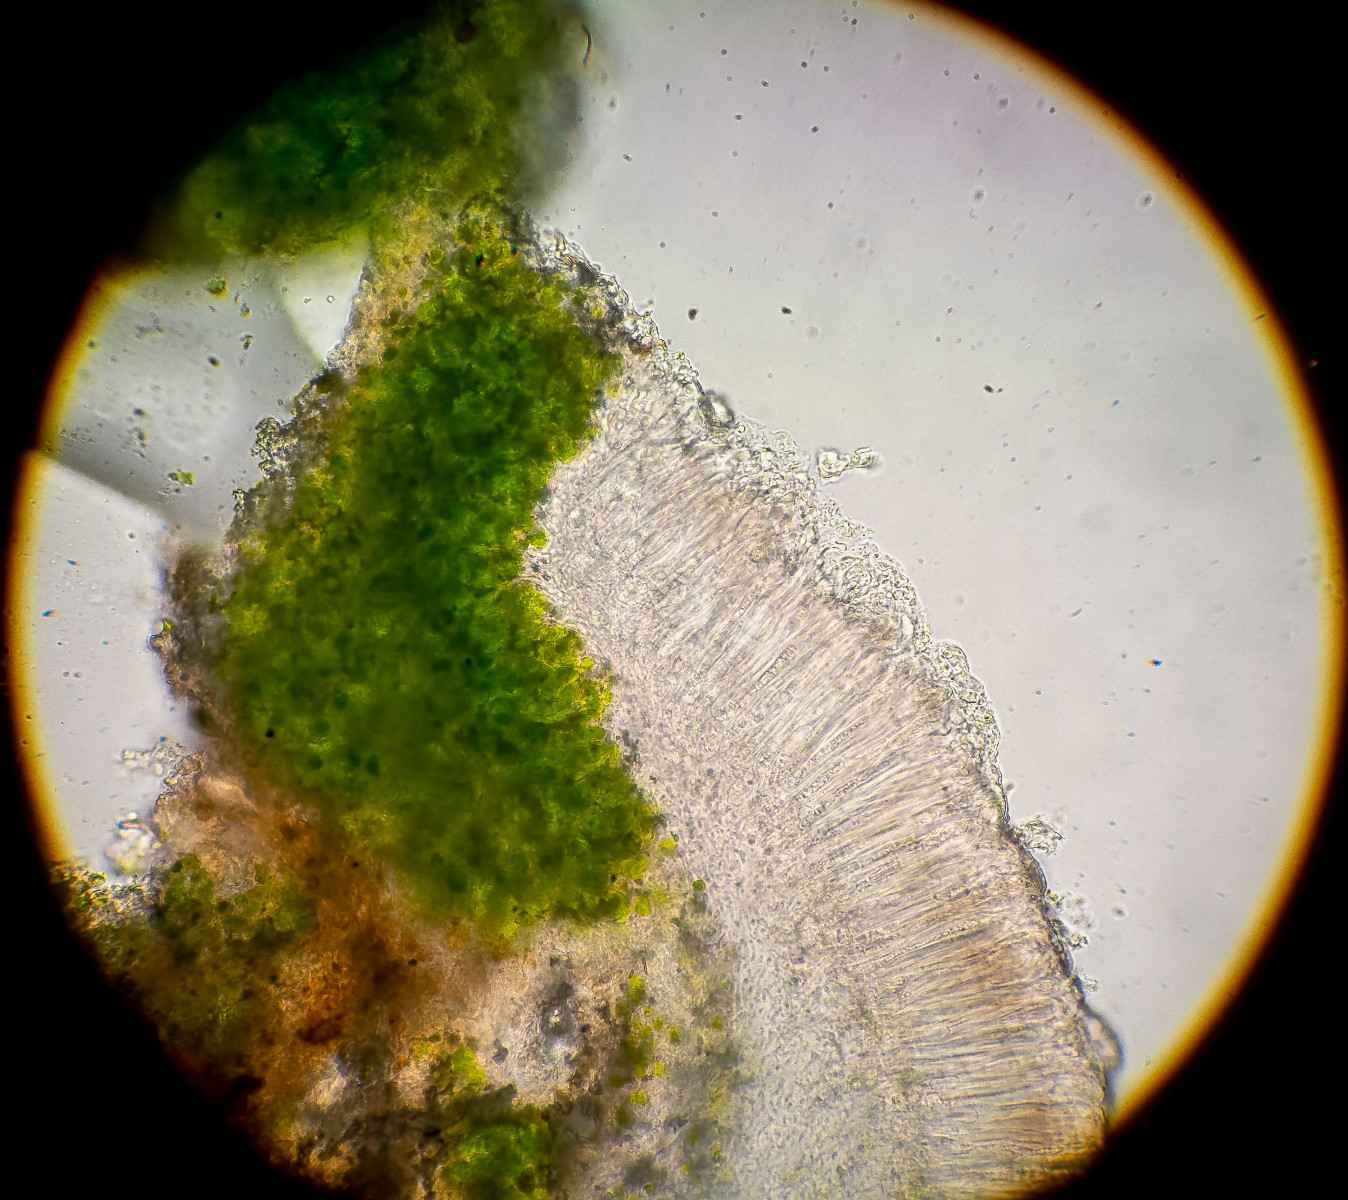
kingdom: Fungi
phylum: Ascomycota
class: Lecanoromycetes
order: Lecanorales
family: Ramalinaceae
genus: Lecania
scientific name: Lecania inundata
